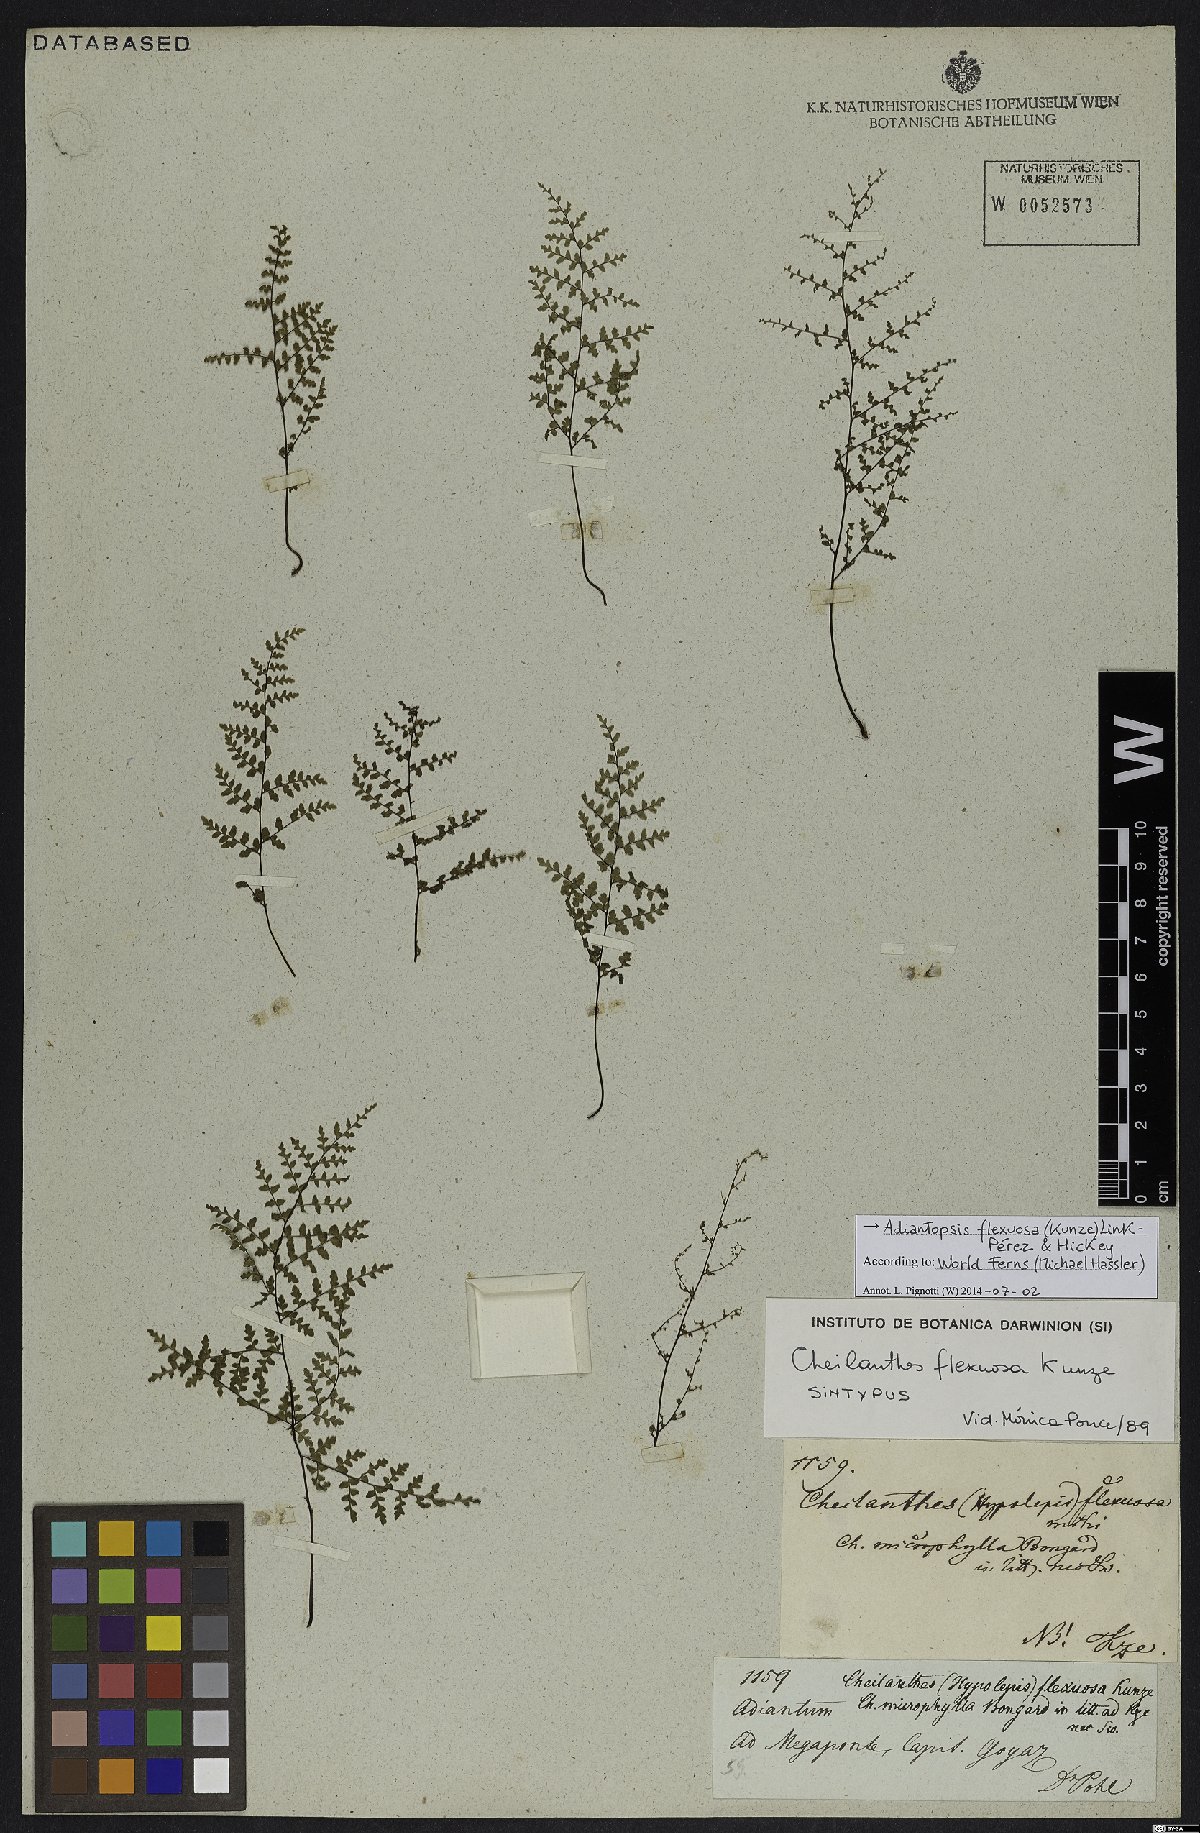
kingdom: Plantae
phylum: Tracheophyta
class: Polypodiopsida
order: Polypodiales
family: Pteridaceae
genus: Adiantopsis
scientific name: Adiantopsis flexuosa
